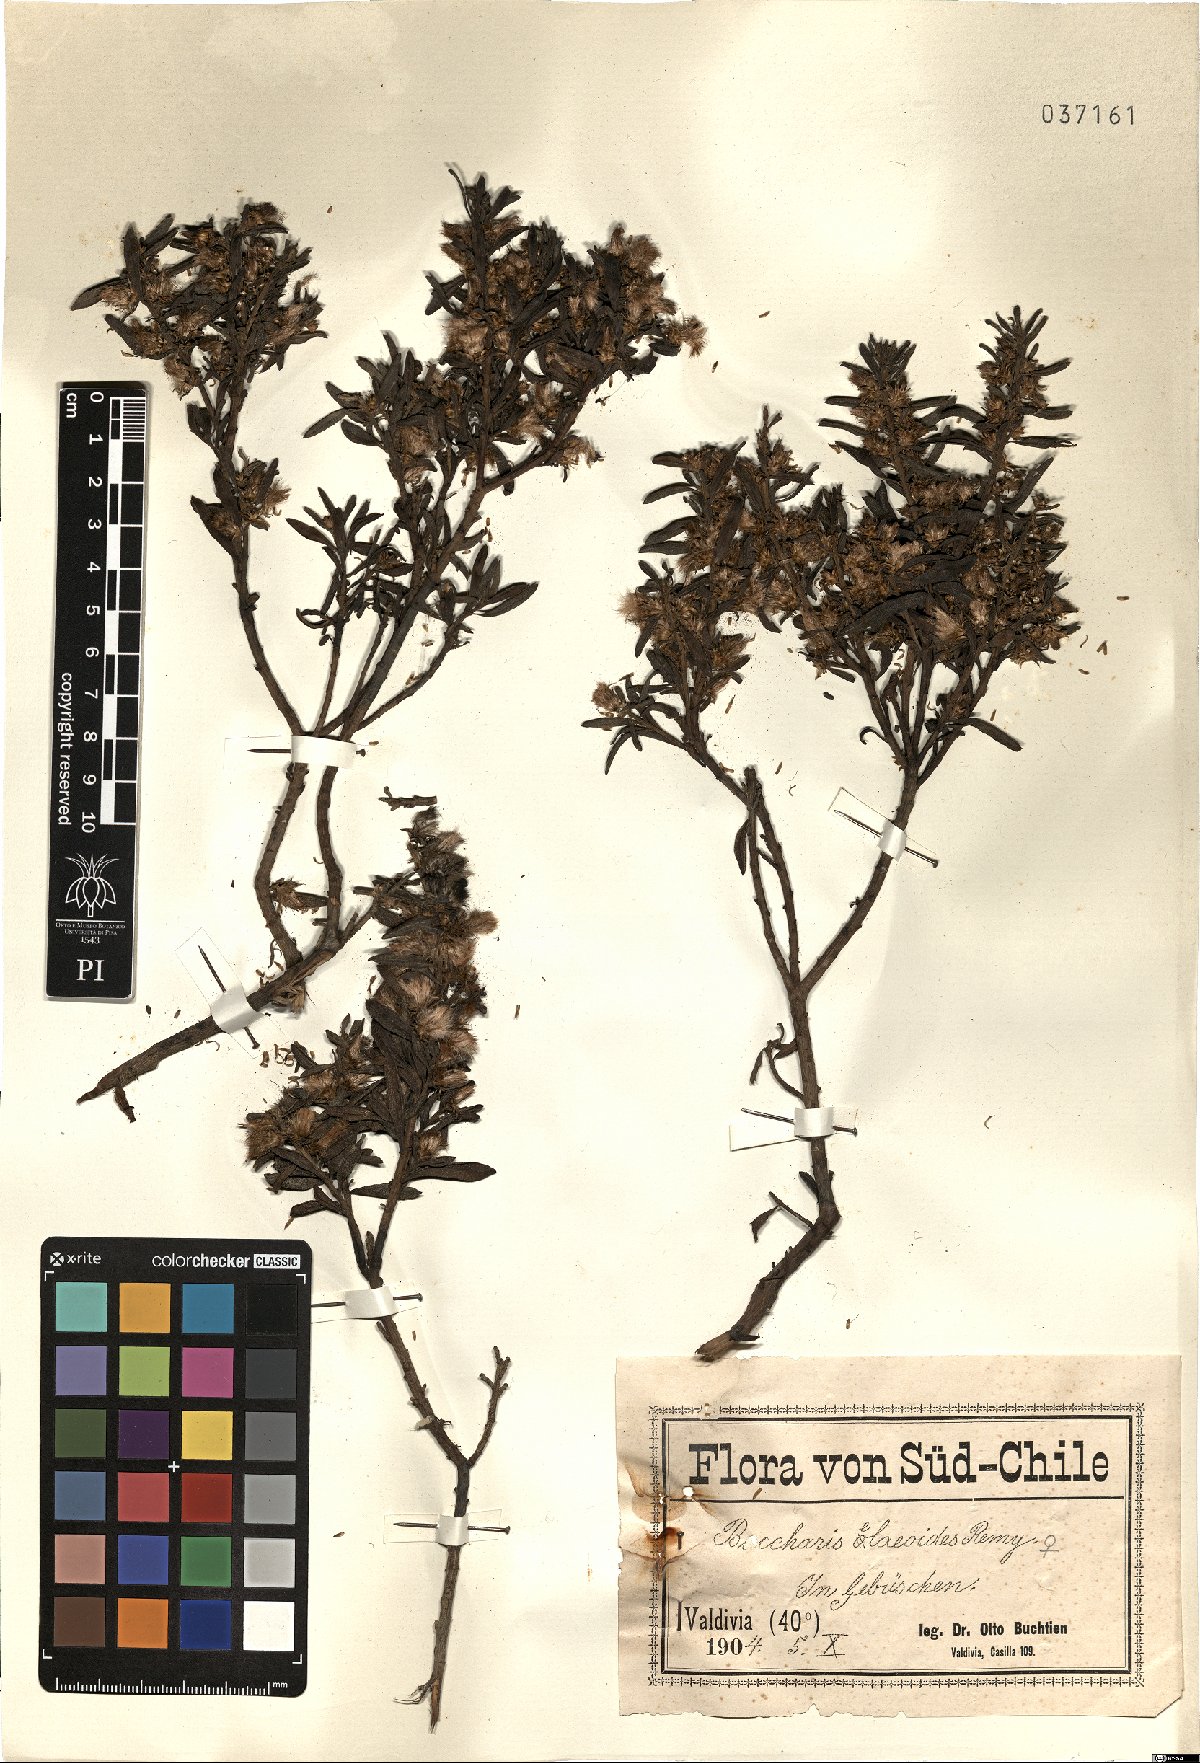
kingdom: Plantae
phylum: Tracheophyta
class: Magnoliopsida
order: Asterales
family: Asteraceae
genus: Baccharis
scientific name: Baccharis elaeoides
